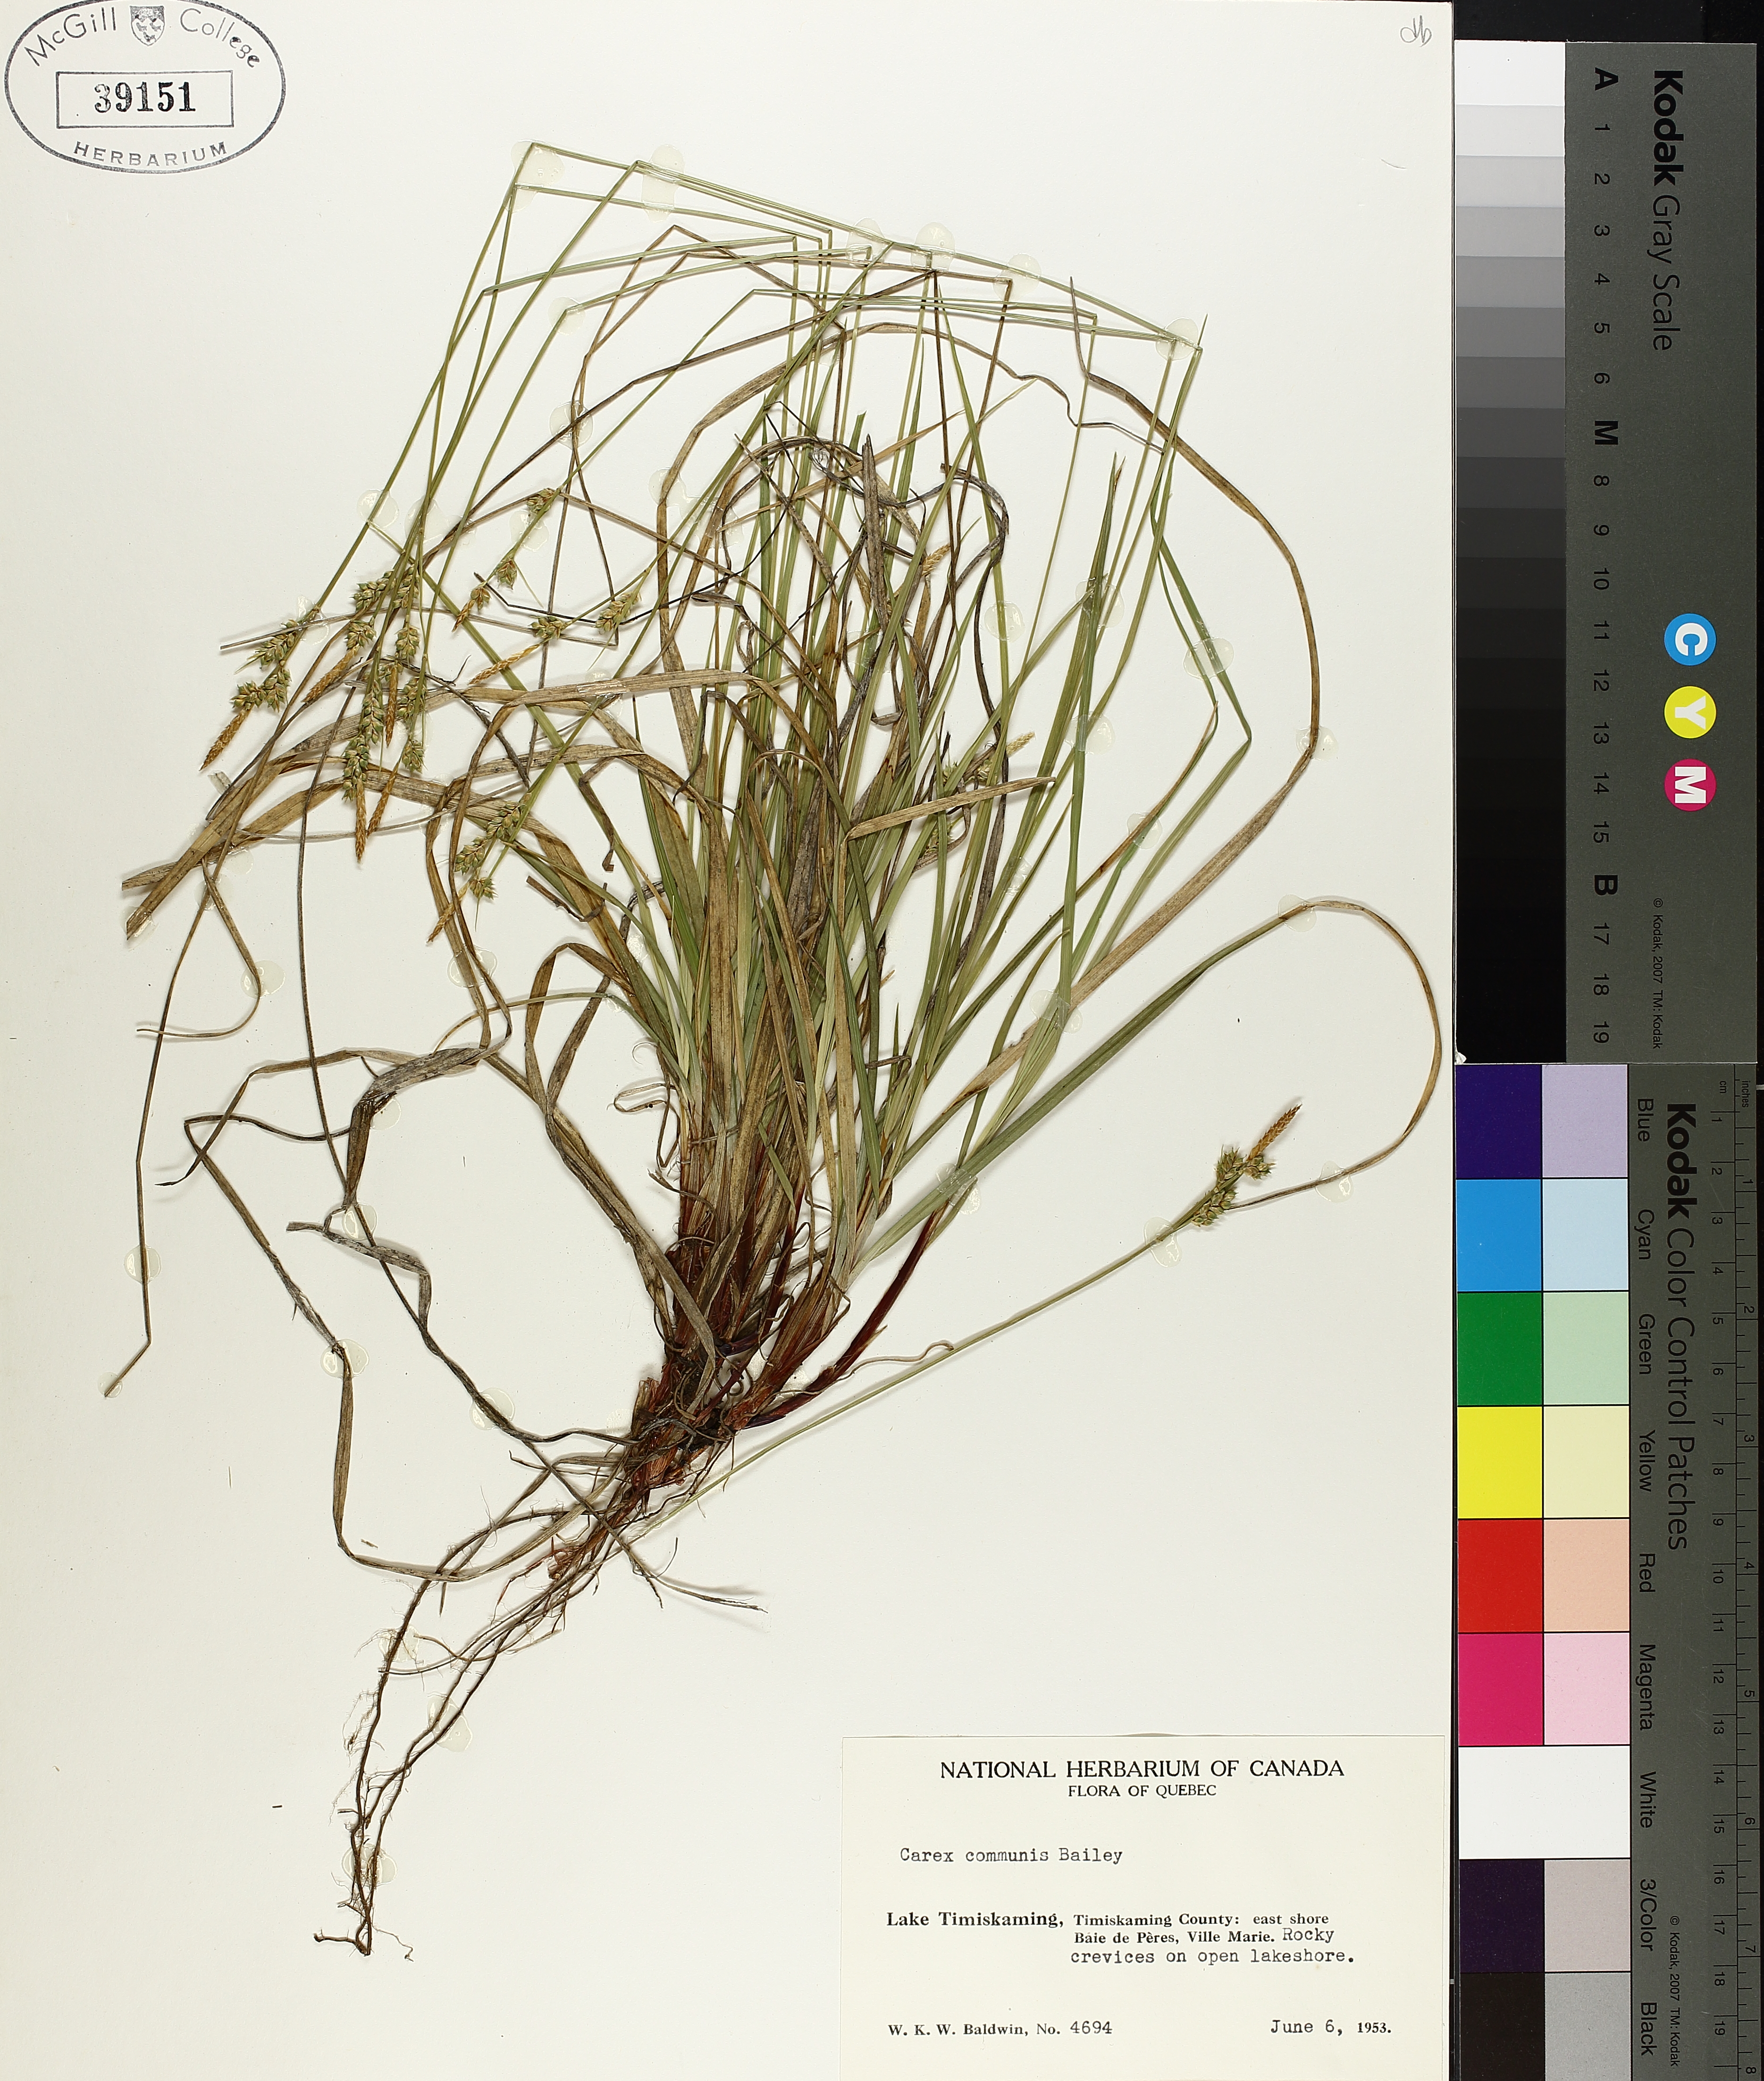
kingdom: Plantae
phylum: Tracheophyta
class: Liliopsida
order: Poales
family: Cyperaceae
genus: Carex
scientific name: Carex communis
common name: Colonial oak sedge
